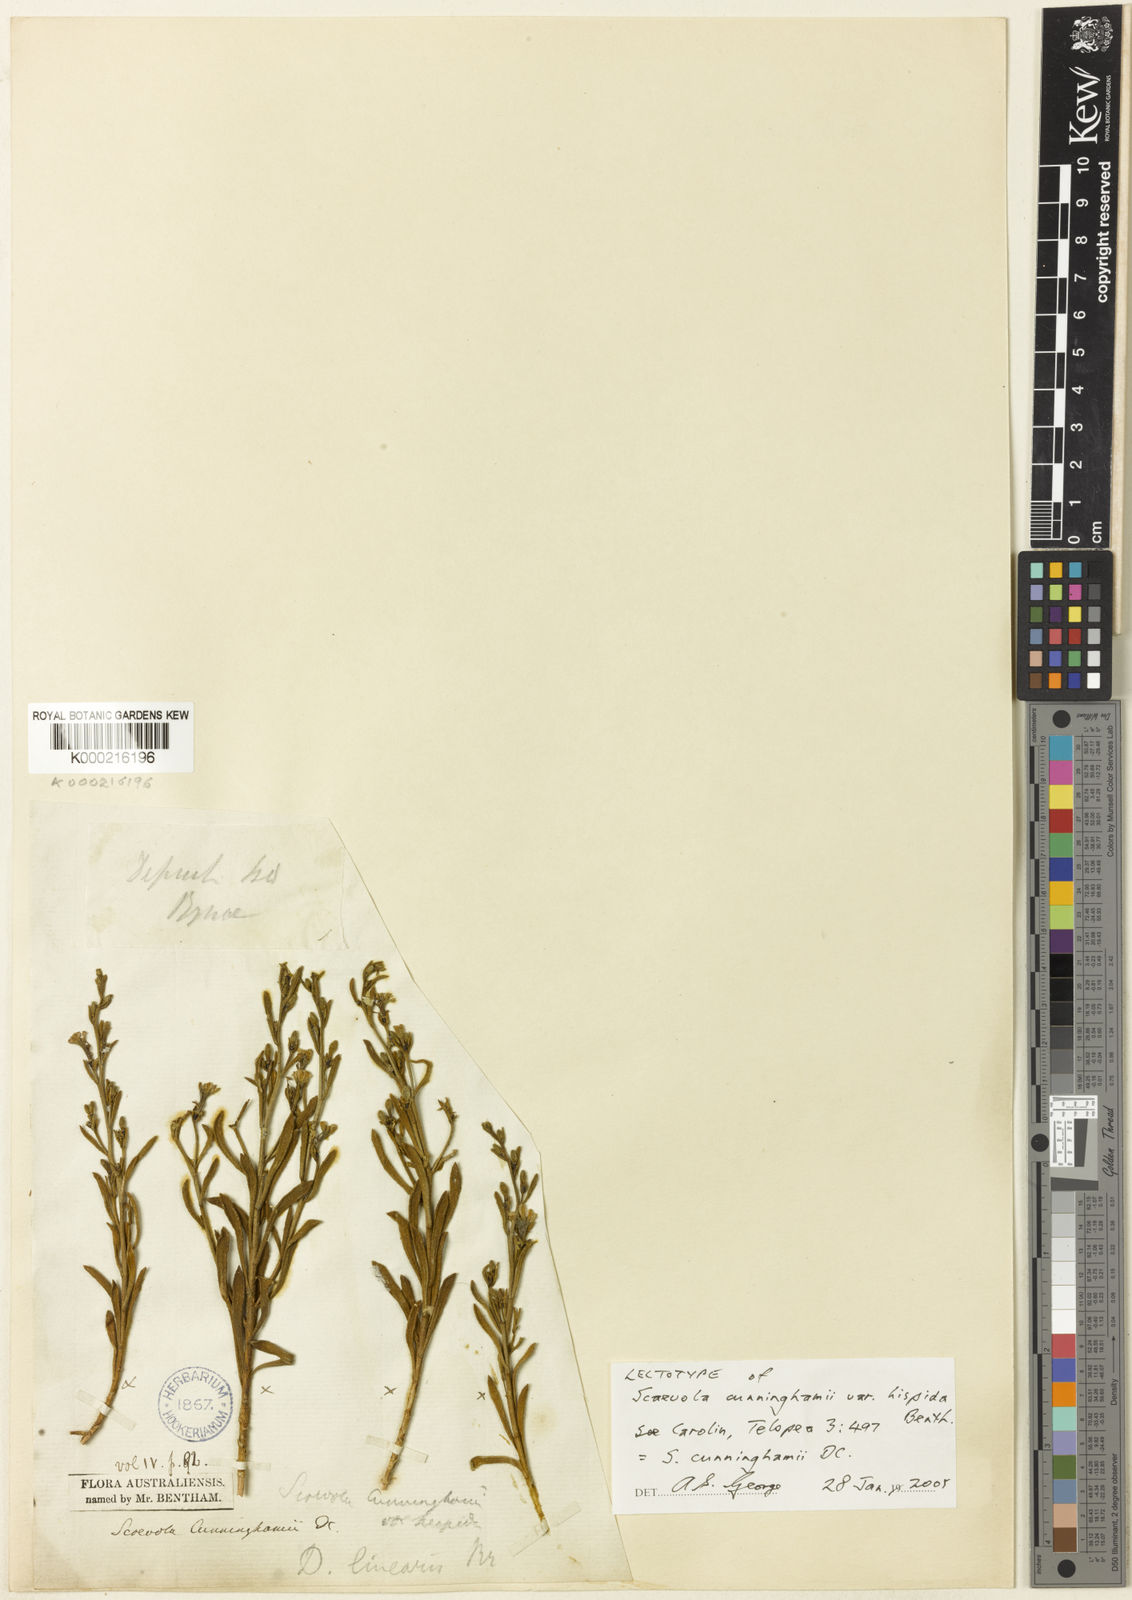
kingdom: Plantae
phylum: Tracheophyta
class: Magnoliopsida
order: Asterales
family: Goodeniaceae
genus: Scaevola
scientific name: Scaevola cunninghamii
